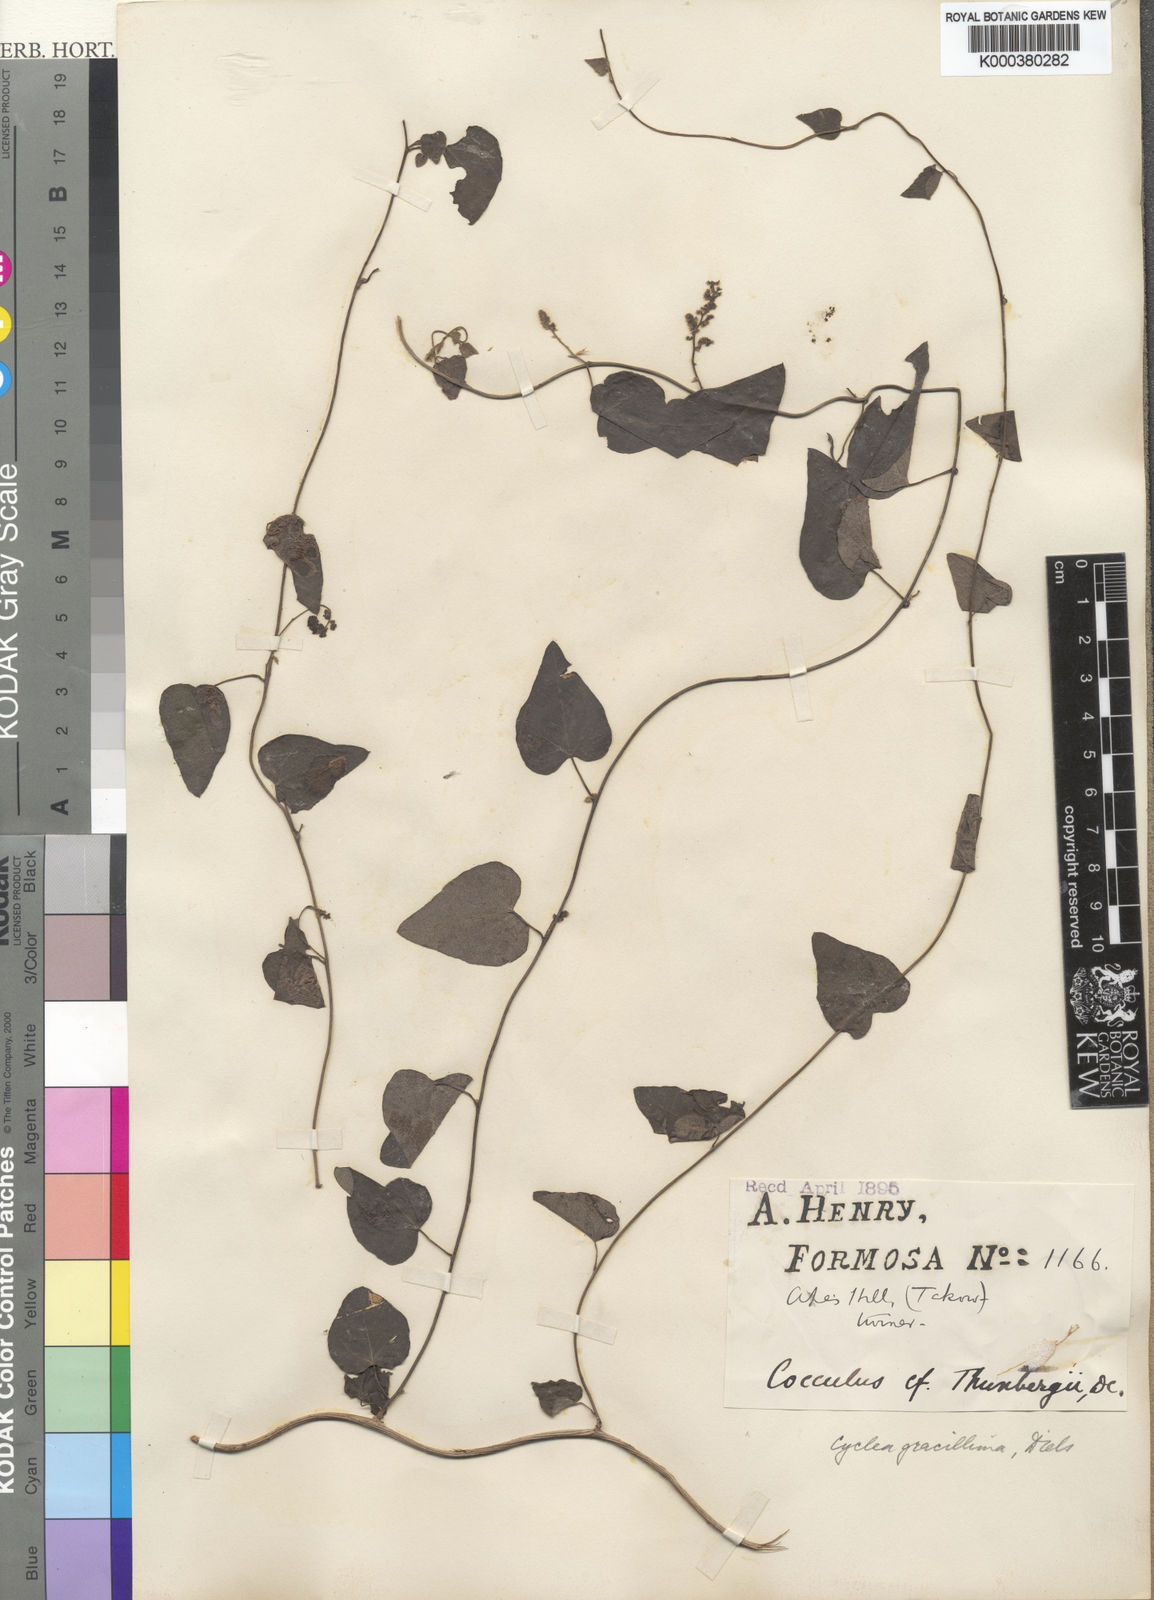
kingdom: Plantae
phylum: Tracheophyta
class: Magnoliopsida
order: Ranunculales
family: Menispermaceae
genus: Cyclea
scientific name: Cyclea gracillima
